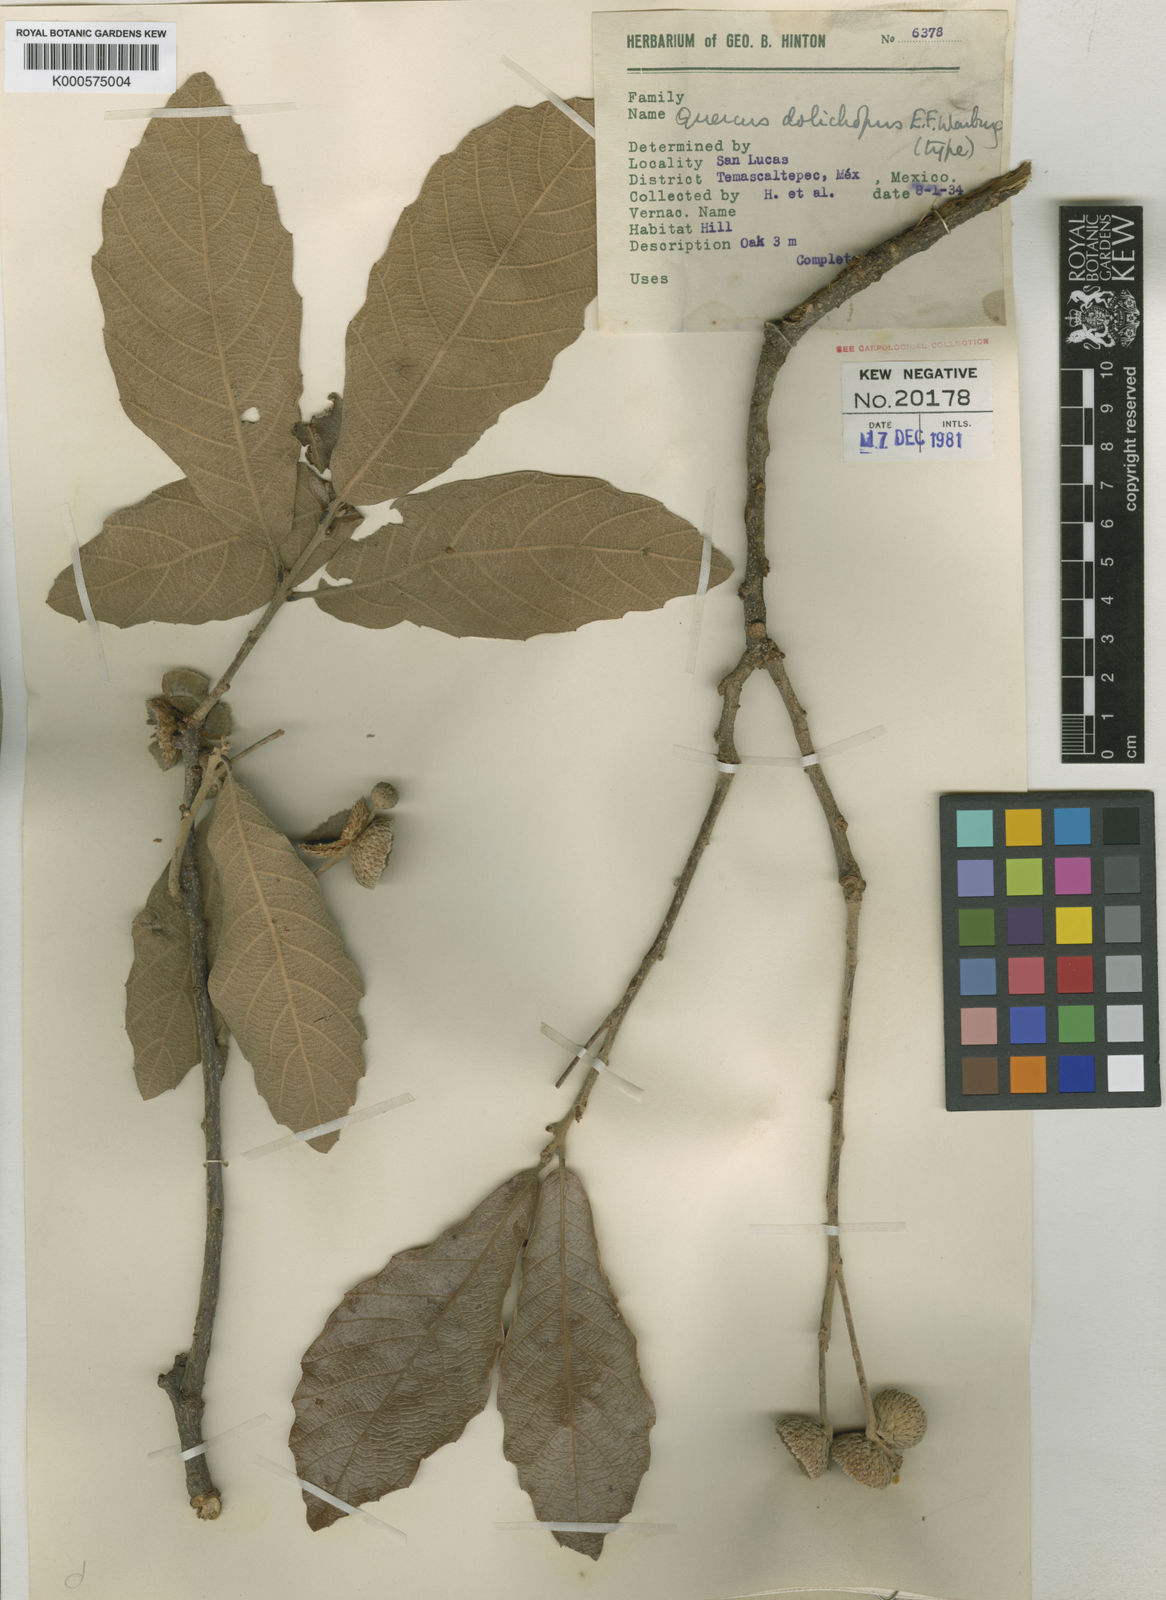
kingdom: Plantae
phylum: Tracheophyta
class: Magnoliopsida
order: Fagales
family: Fagaceae
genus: Quercus
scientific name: Quercus peduncularis
